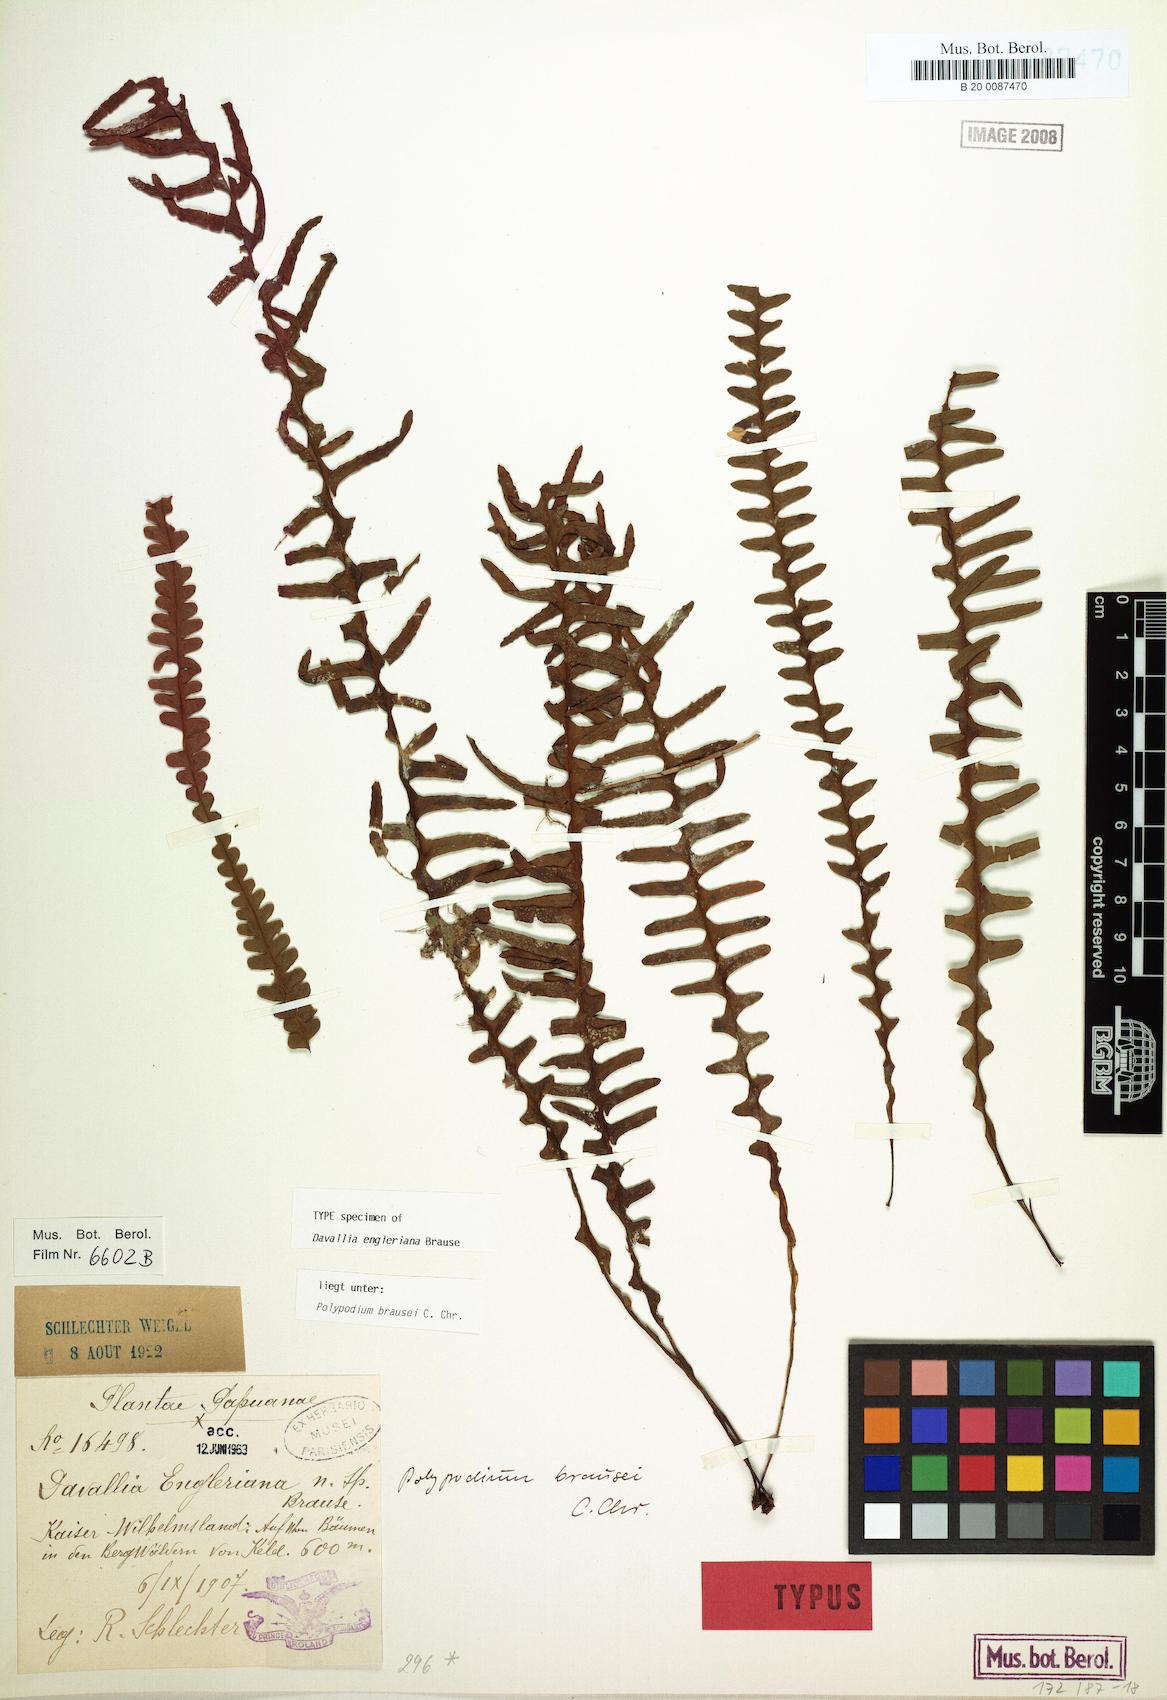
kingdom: Plantae
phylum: Tracheophyta
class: Polypodiopsida
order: Polypodiales
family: Polypodiaceae
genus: Prosaptia
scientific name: Prosaptia engleriana
